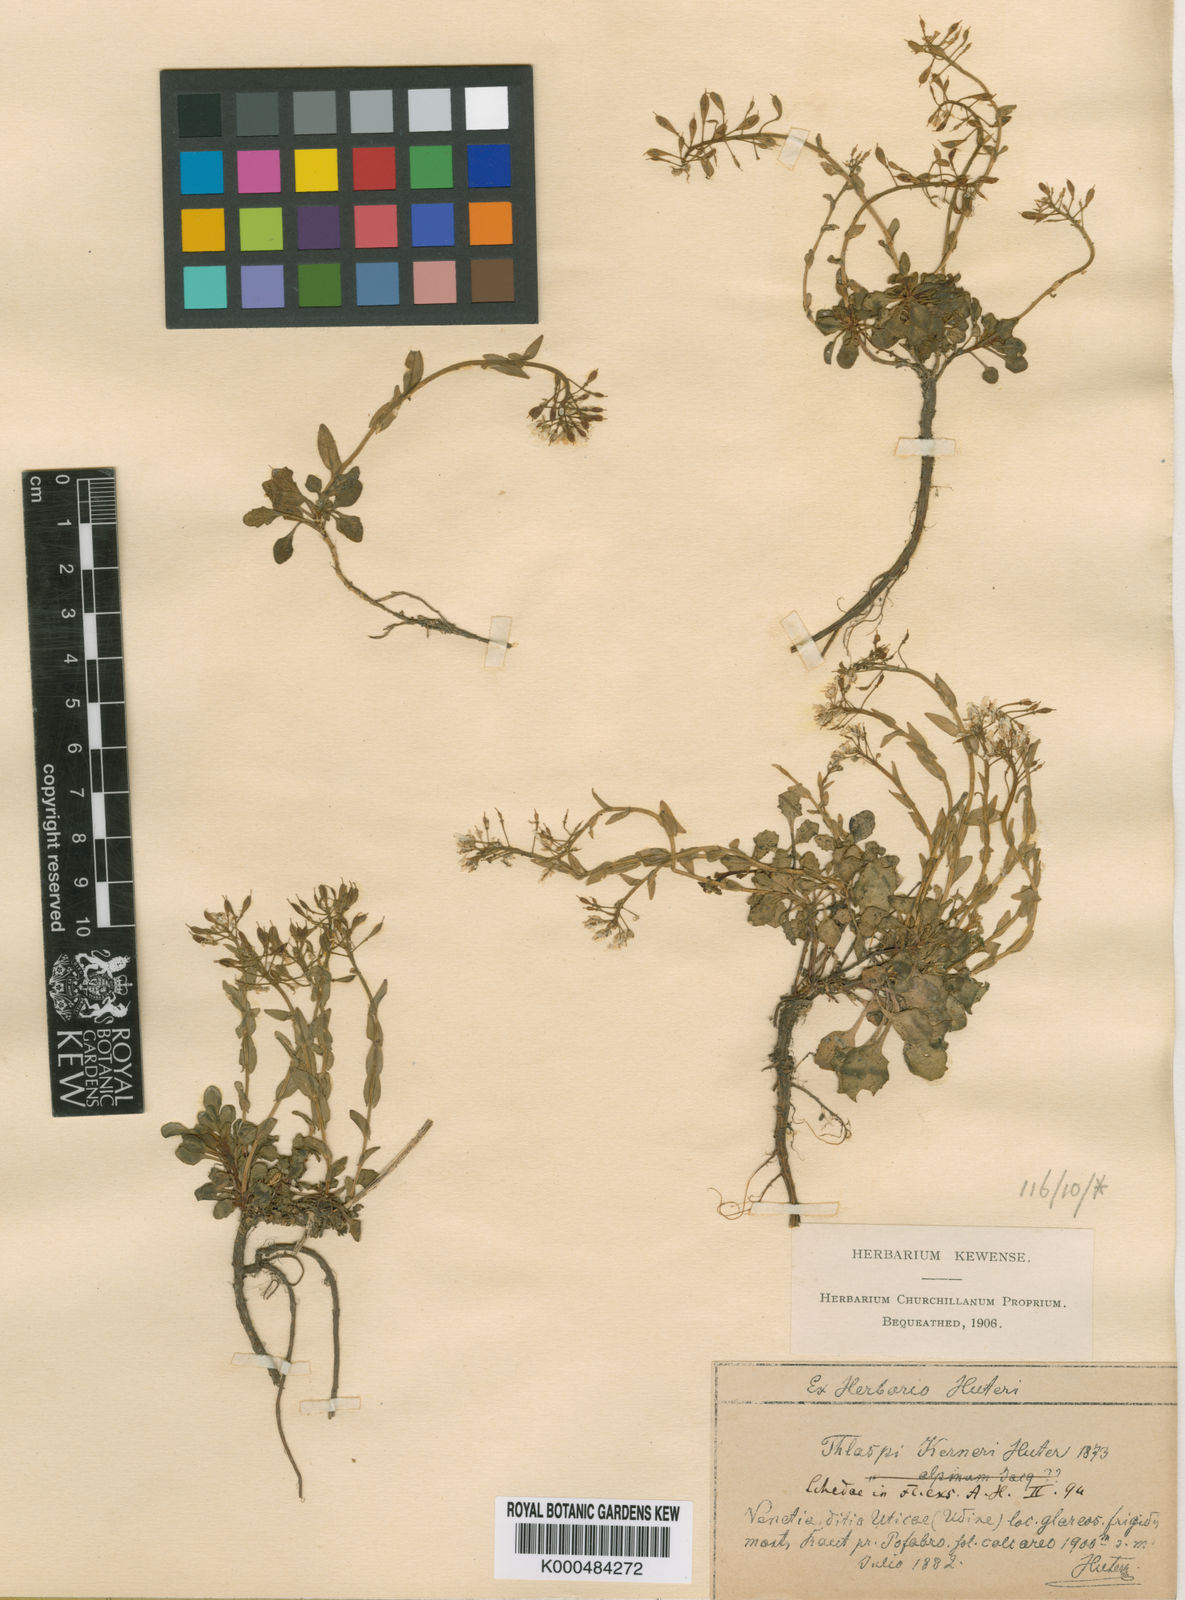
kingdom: Plantae
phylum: Tracheophyta
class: Magnoliopsida
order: Brassicales
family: Brassicaceae
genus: Noccaea
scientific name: Noccaea minima
